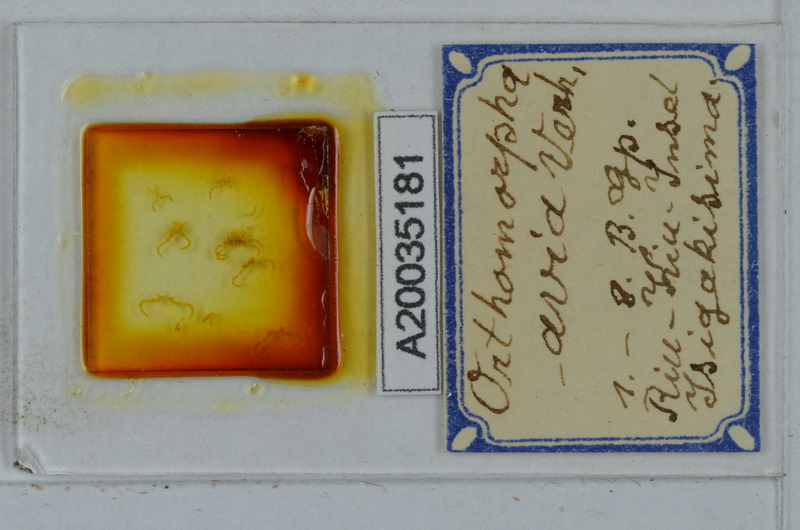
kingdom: Animalia
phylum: Arthropoda
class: Diplopoda
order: Polydesmida
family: Paradoxosomatidae
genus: Oxidus
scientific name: Oxidus avia
